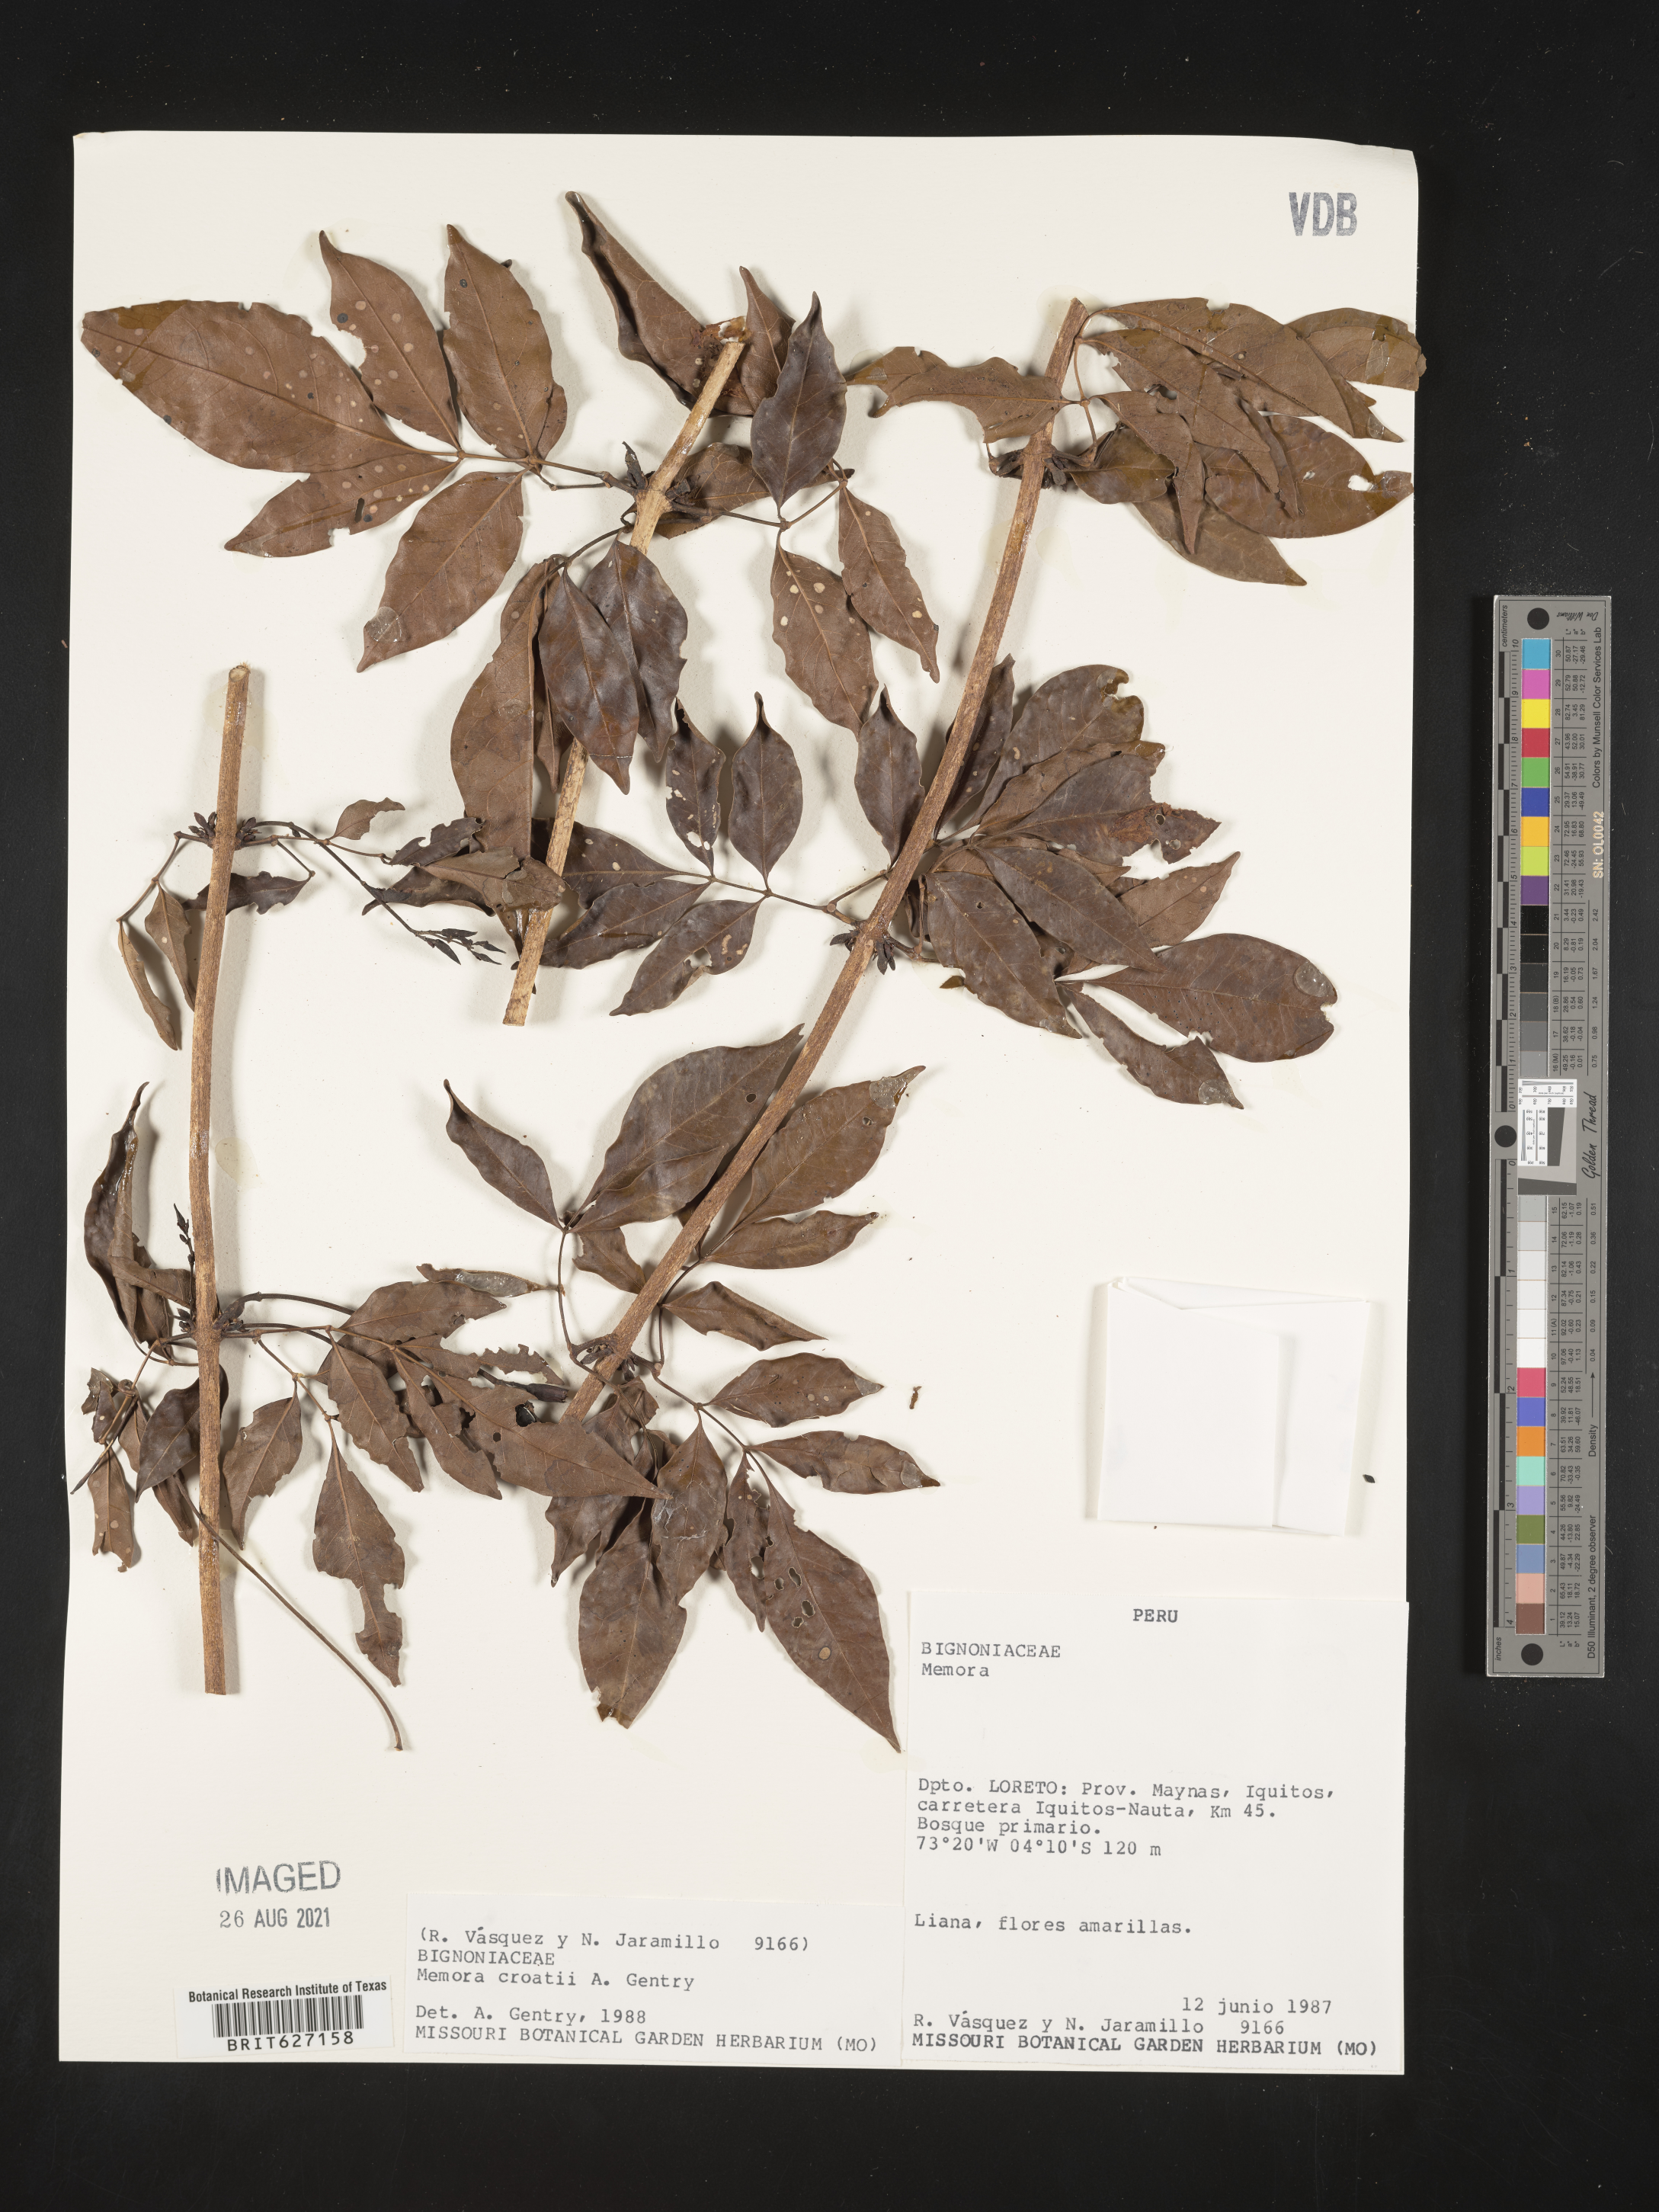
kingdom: Plantae
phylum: Tracheophyta
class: Magnoliopsida
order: Lamiales
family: Bignoniaceae
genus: Adenocalymma
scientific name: Adenocalymma croatii
